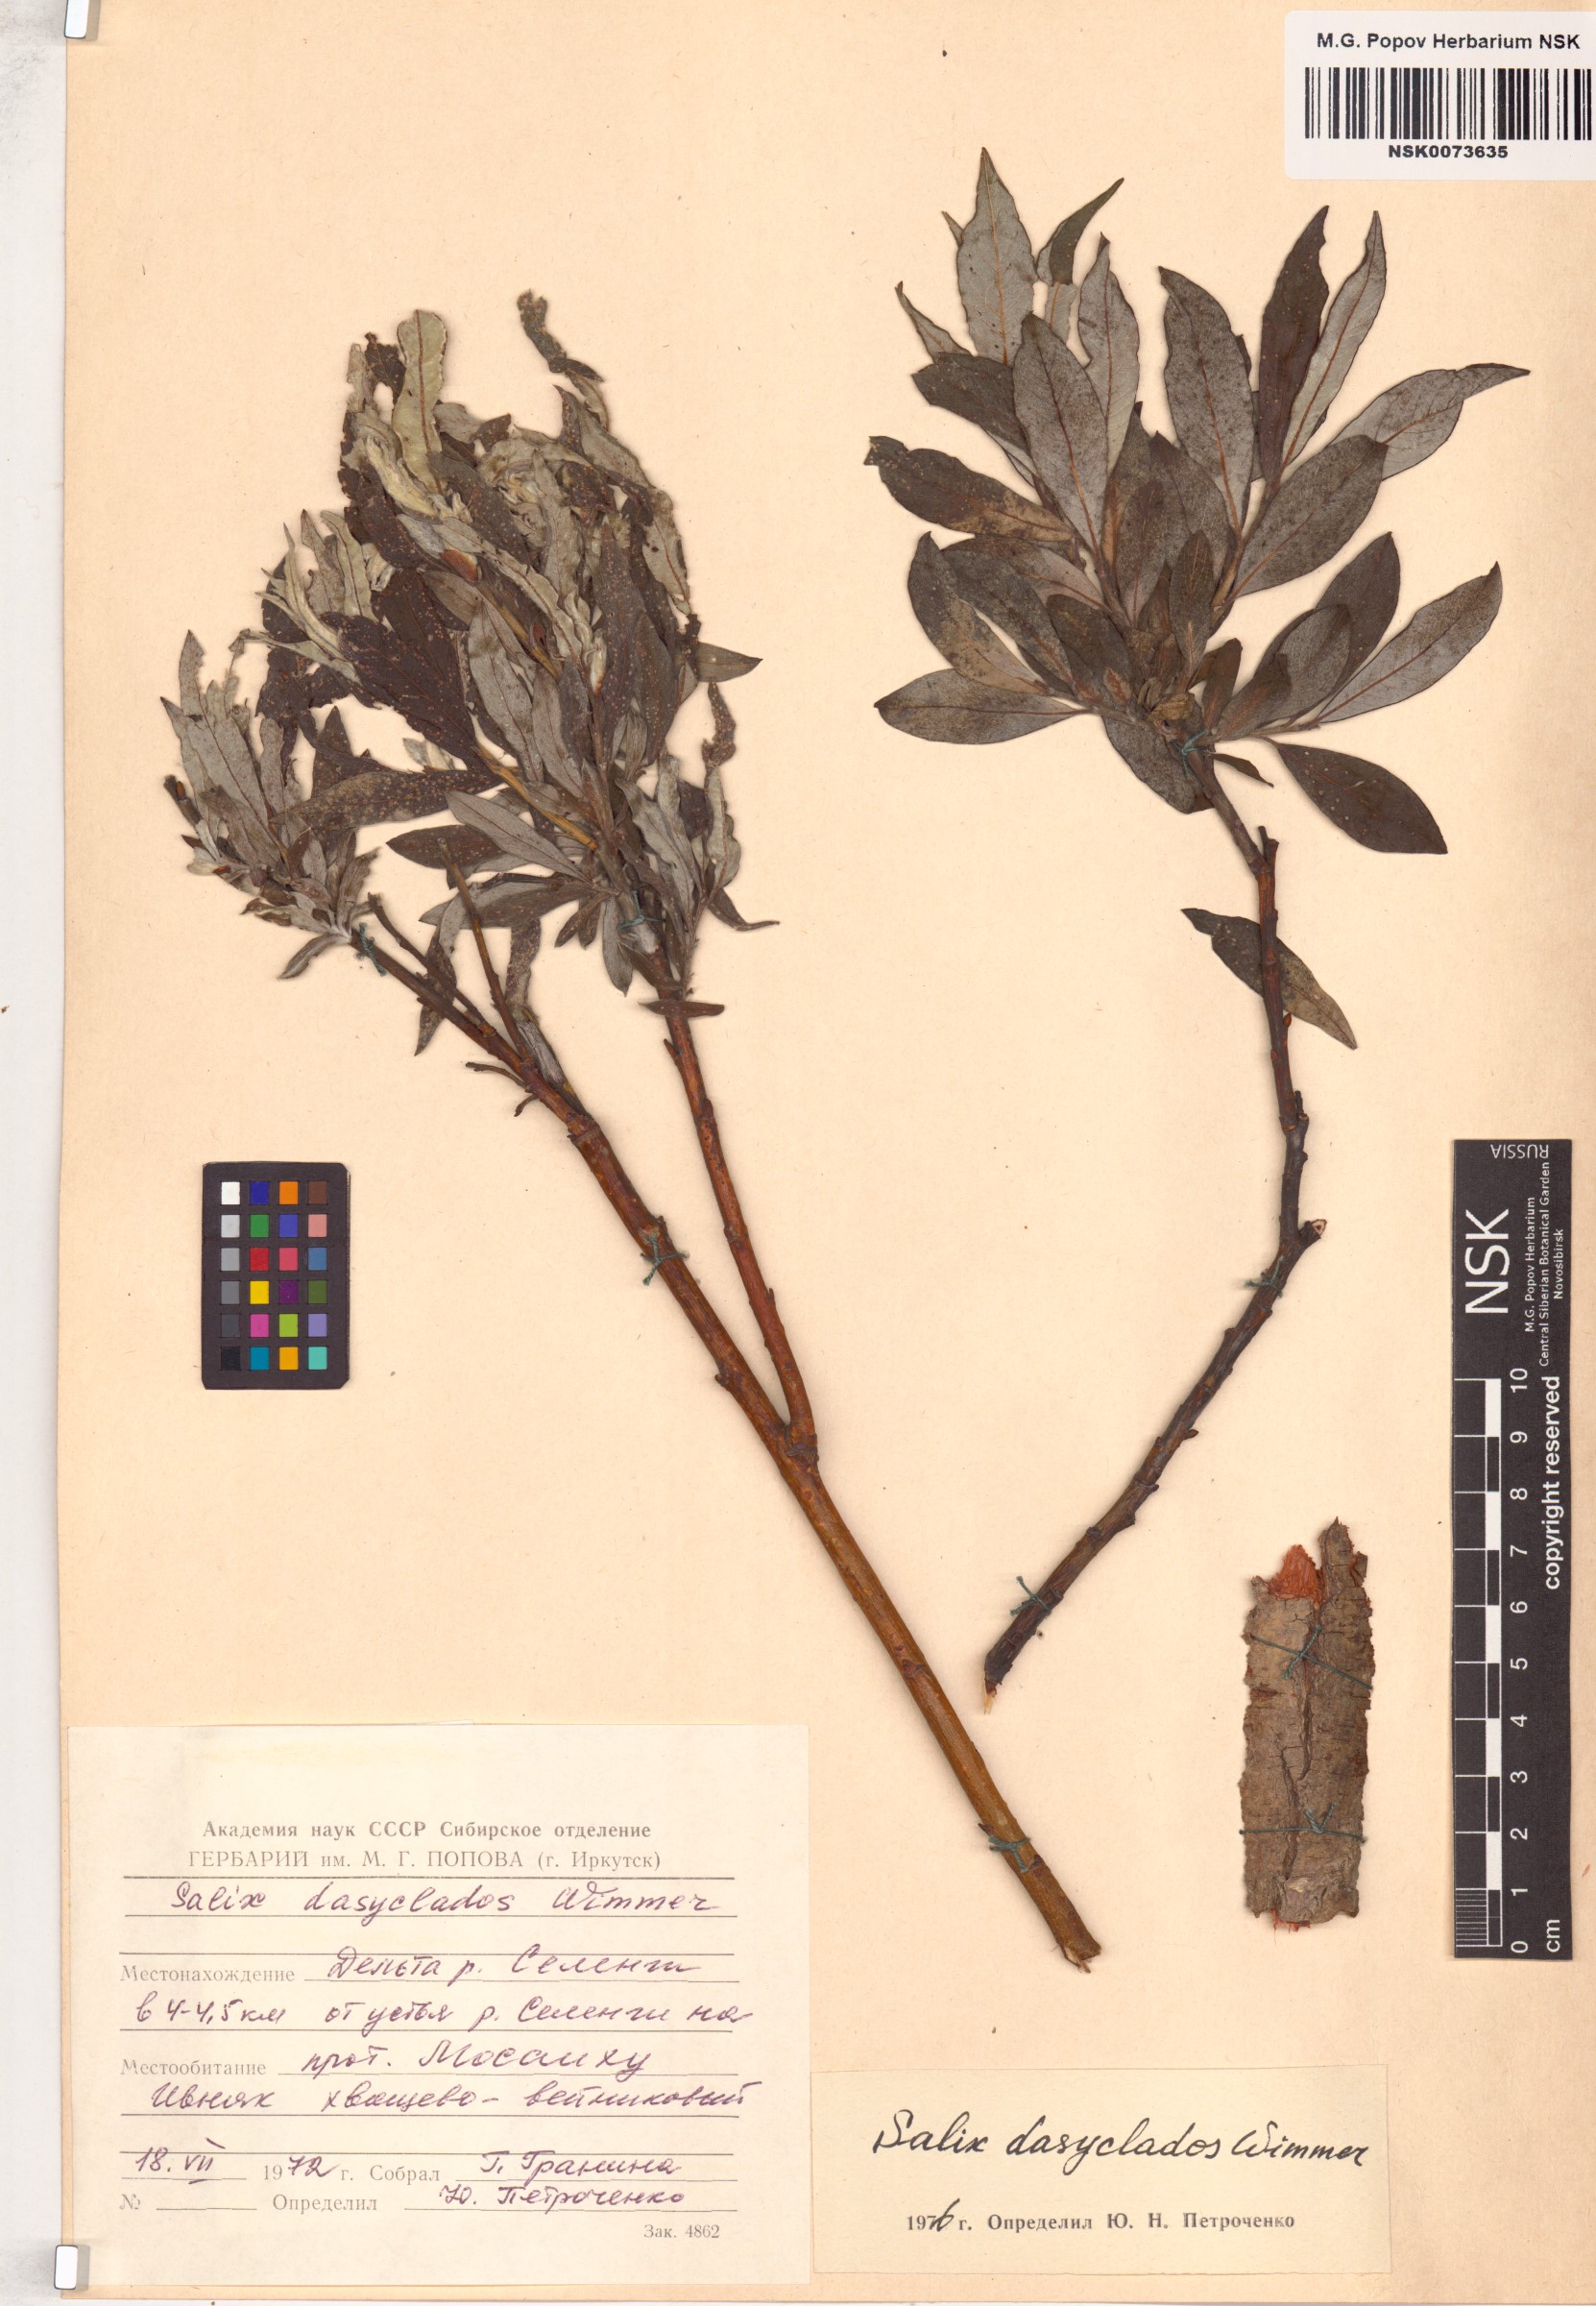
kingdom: Plantae
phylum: Tracheophyta
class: Magnoliopsida
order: Malpighiales
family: Salicaceae
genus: Salix
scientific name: Salix gmelinii
